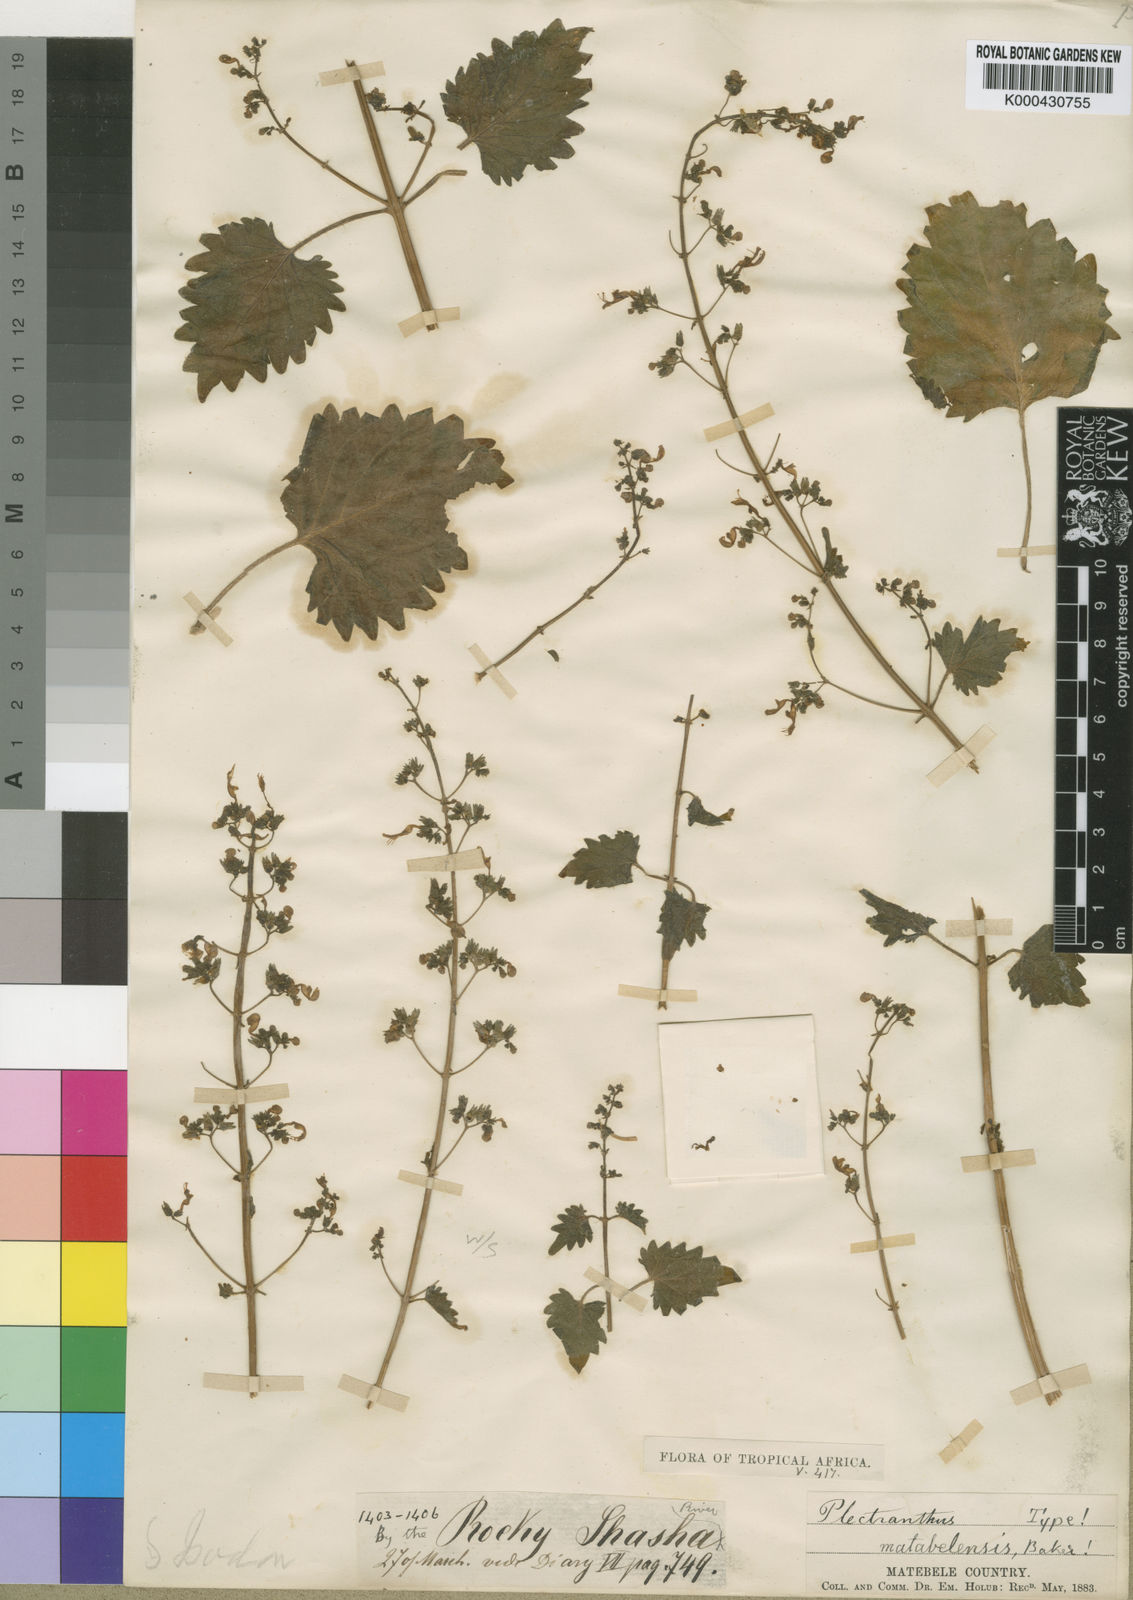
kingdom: Plantae
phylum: Tracheophyta
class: Magnoliopsida
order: Lamiales
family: Lamiaceae
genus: Coleus
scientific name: Coleus hereroensis
